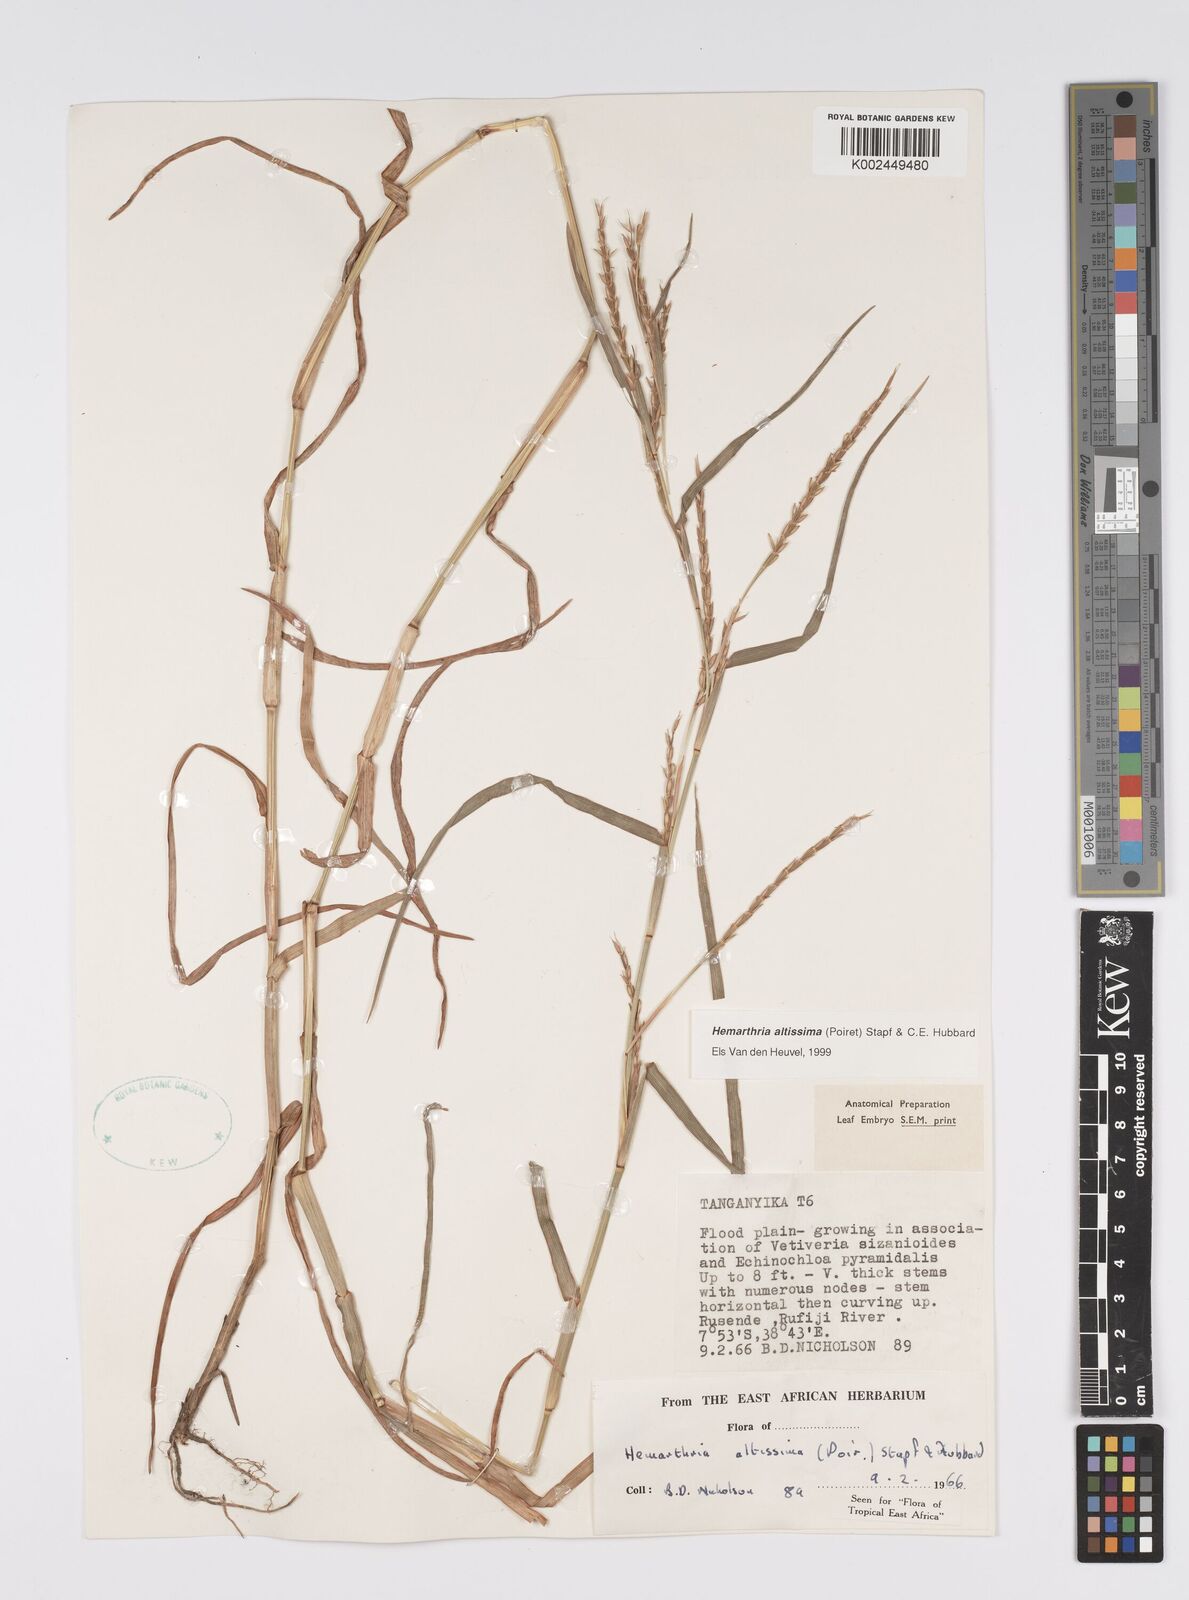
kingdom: Plantae
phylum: Tracheophyta
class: Liliopsida
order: Poales
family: Poaceae
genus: Hemarthria
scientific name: Hemarthria altissima
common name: African jointgrass
